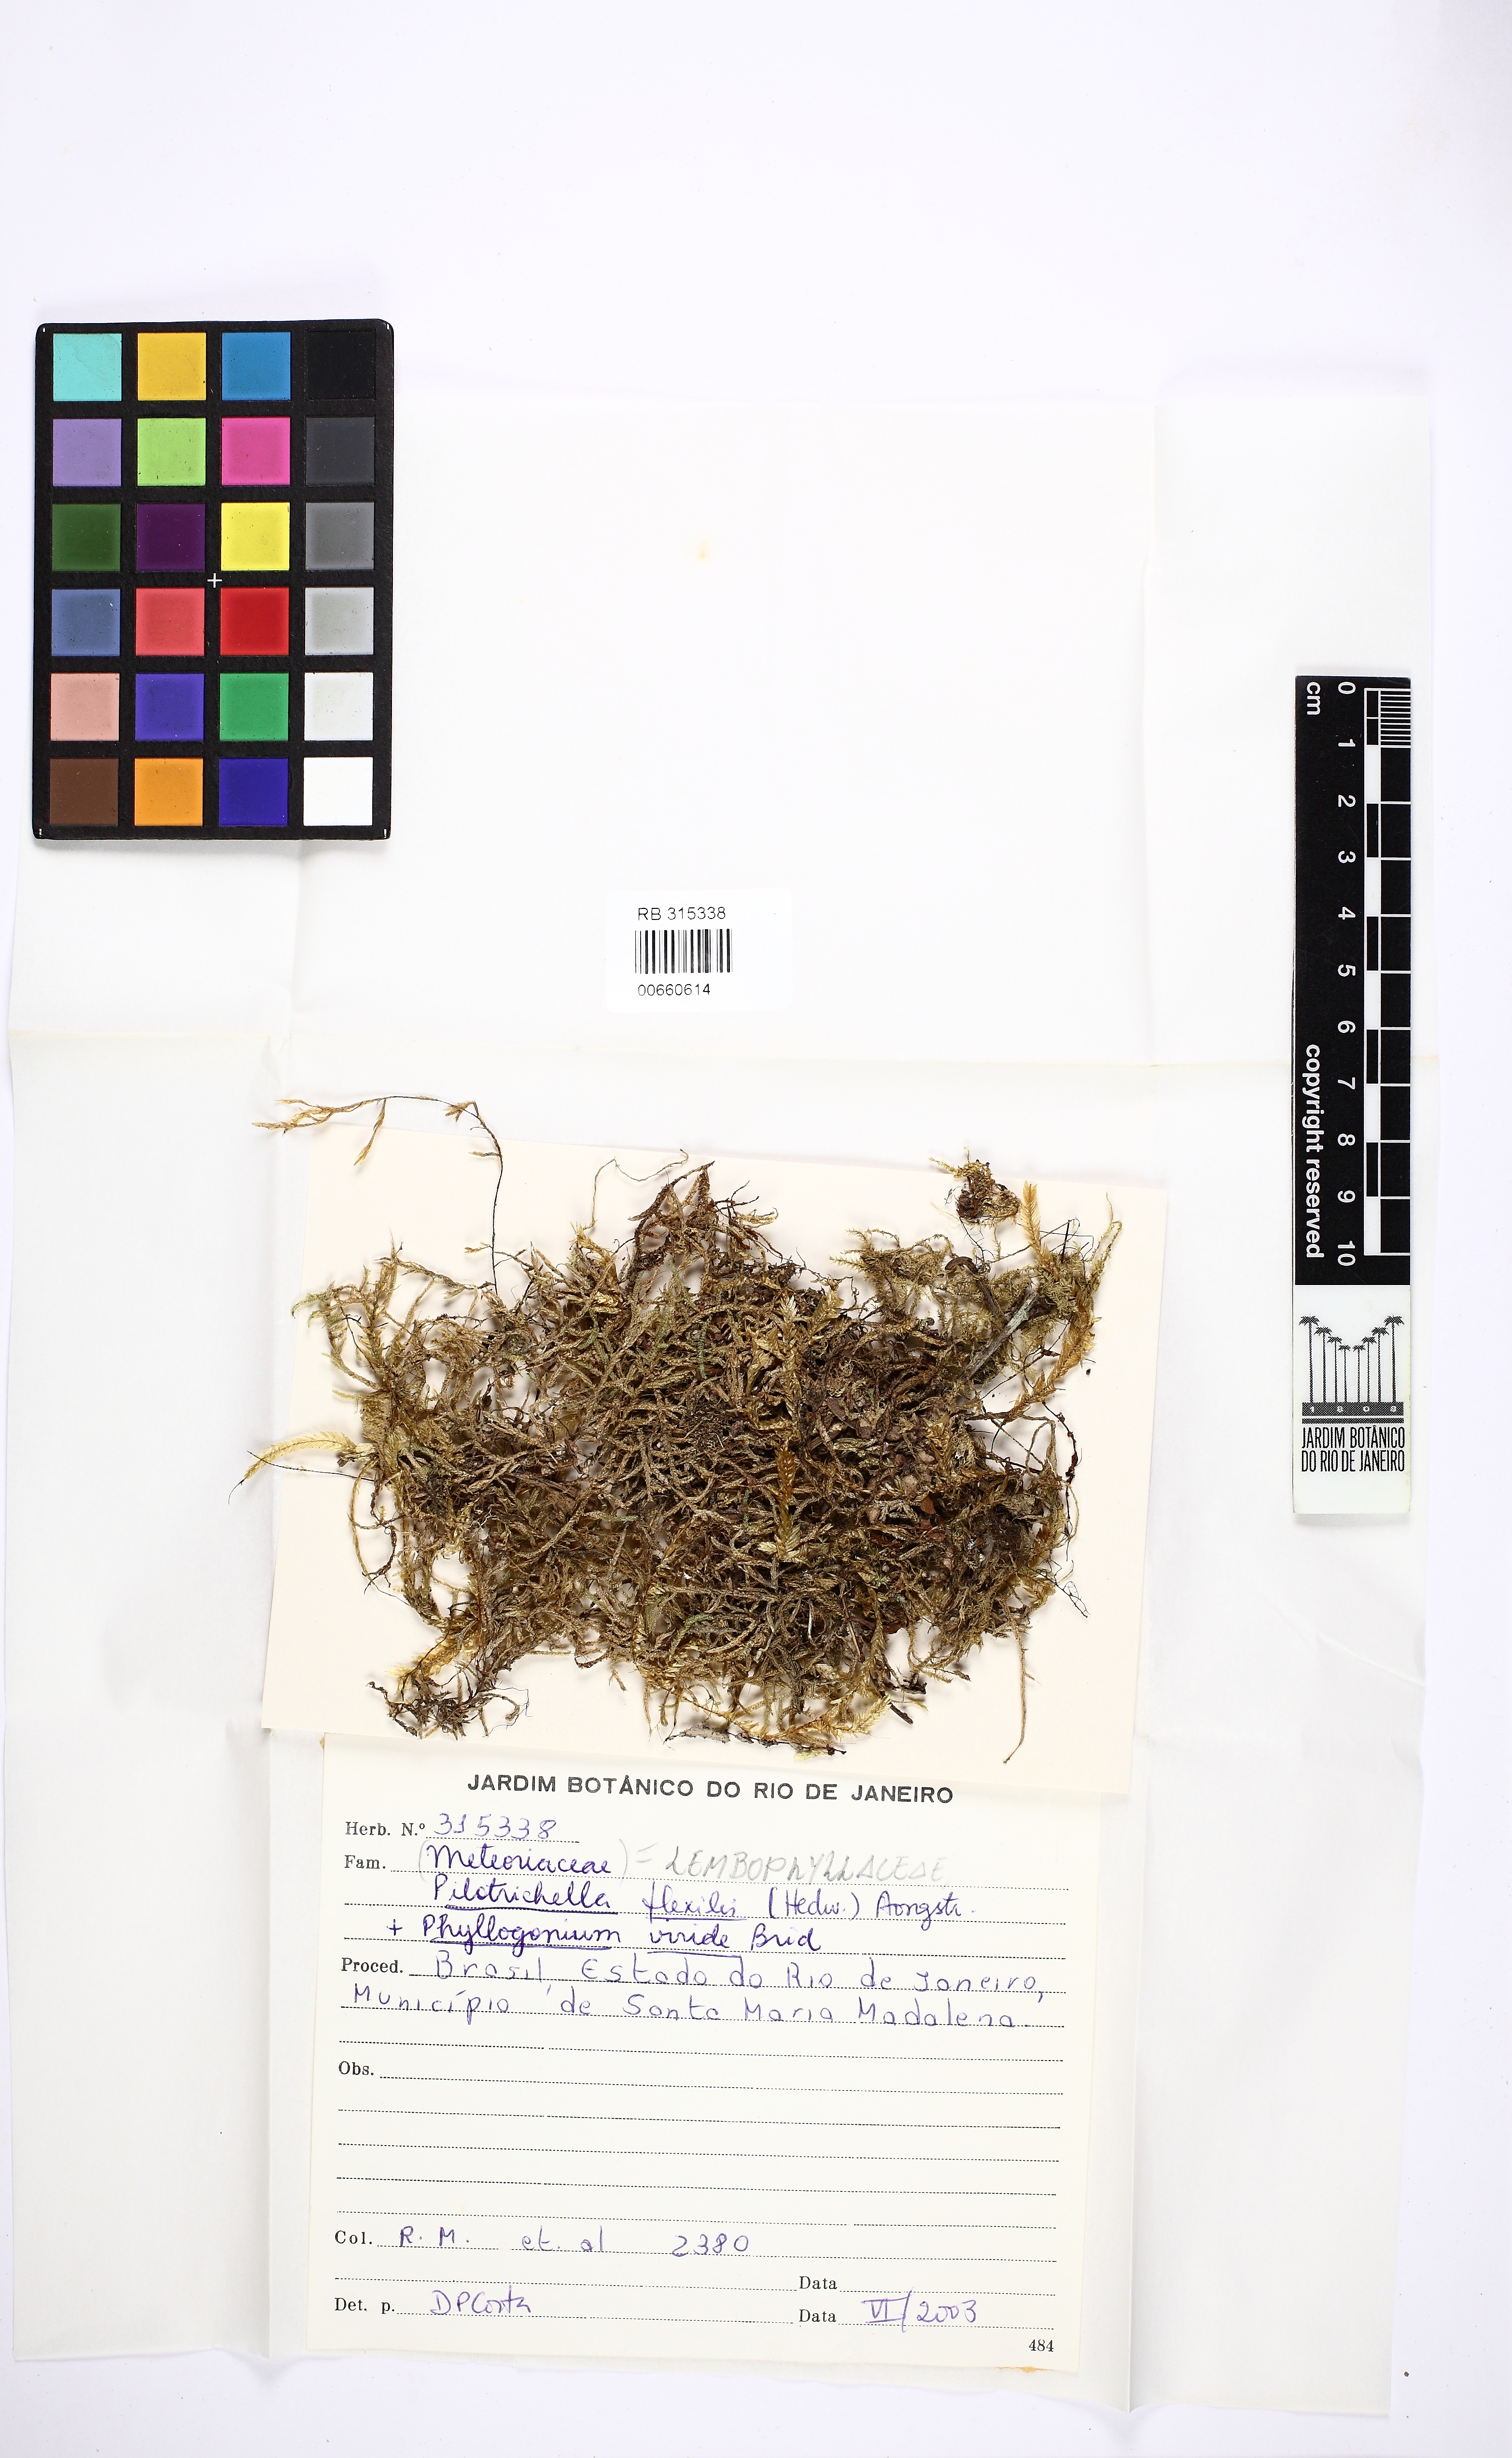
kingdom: Plantae
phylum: Bryophyta
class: Bryopsida
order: Hypnales
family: Lembophyllaceae
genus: Pilotrichella
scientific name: Pilotrichella flexilis
